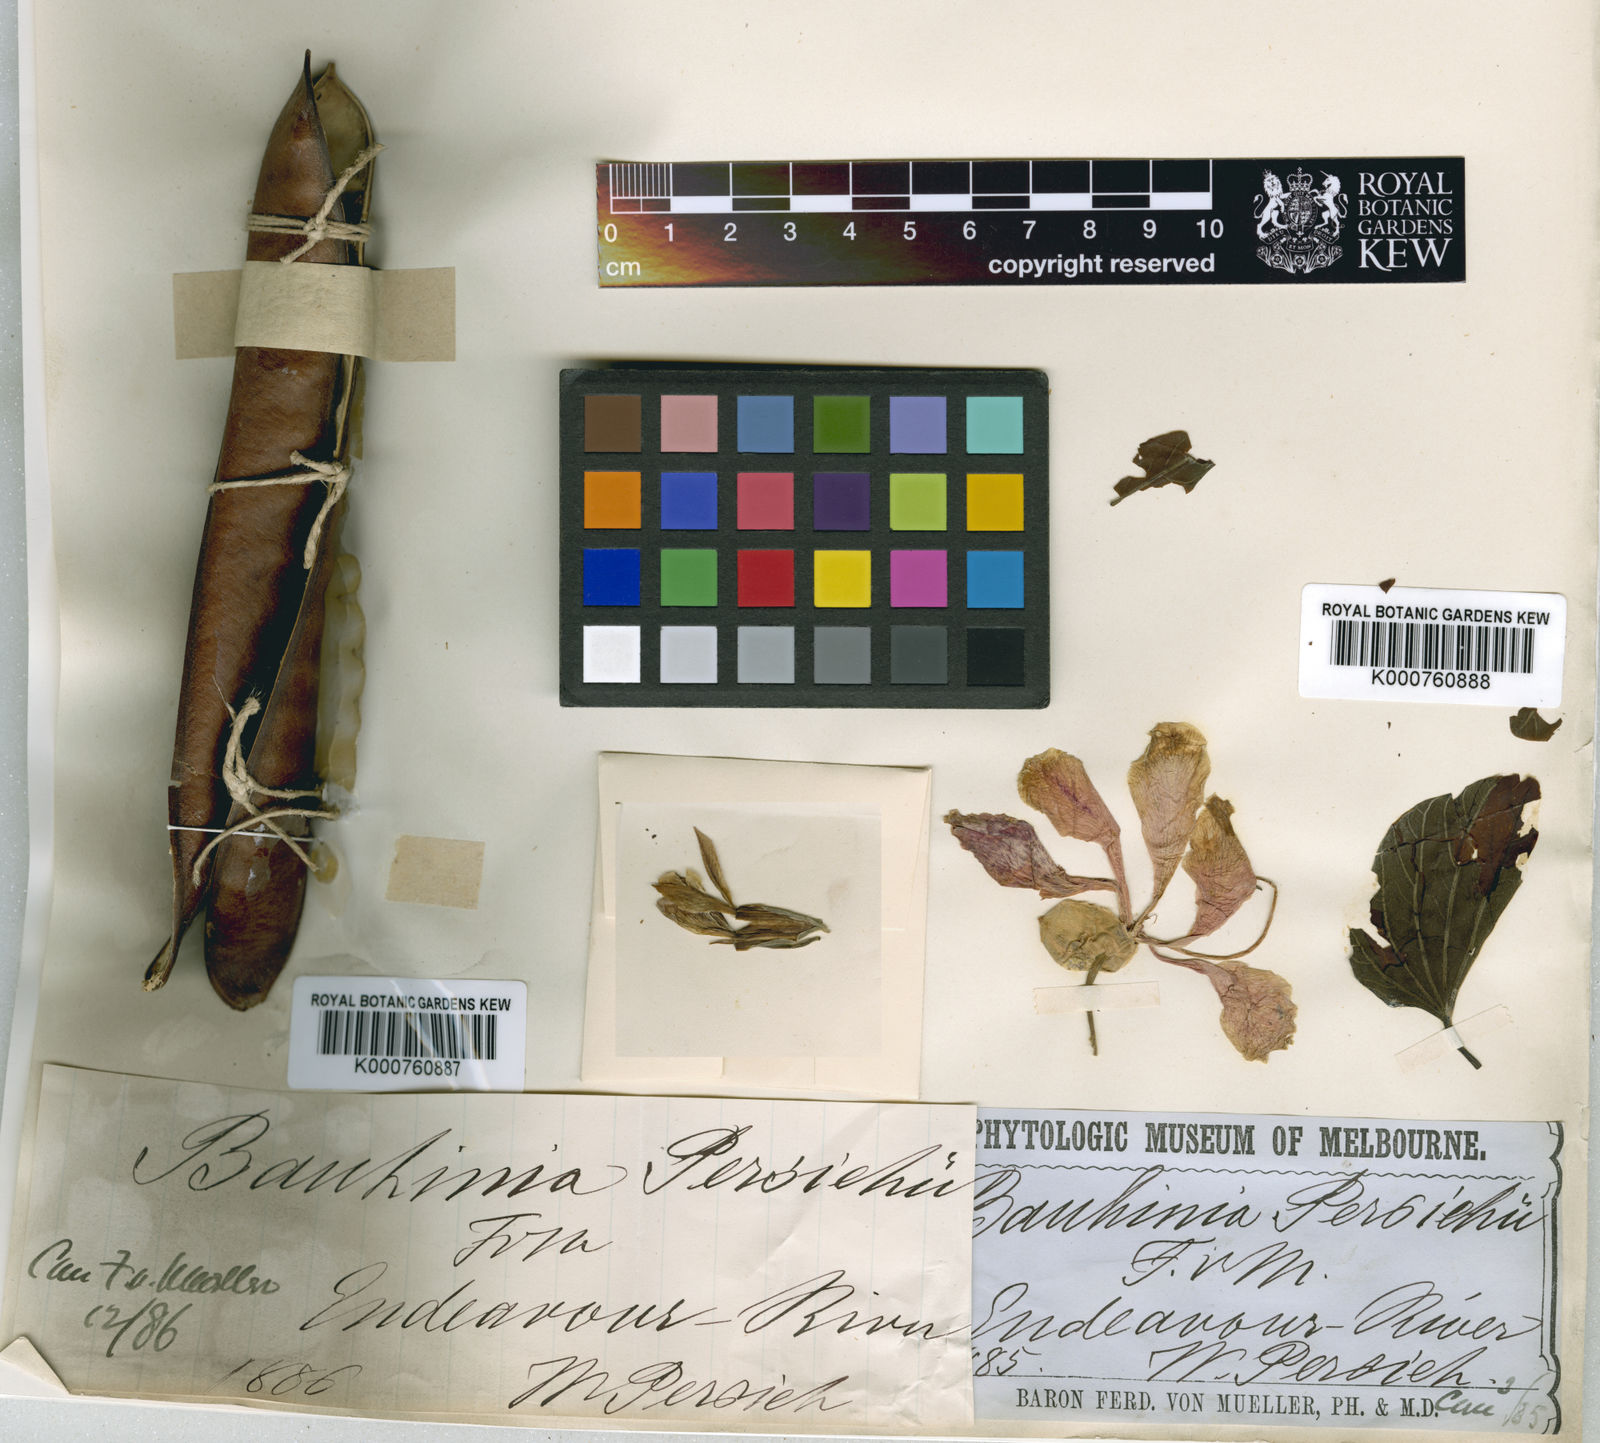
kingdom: Plantae
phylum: Tracheophyta
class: Magnoliopsida
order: Fabales
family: Fabaceae
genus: Bauhinia
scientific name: Bauhinia monandra
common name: Napoleon's plume
